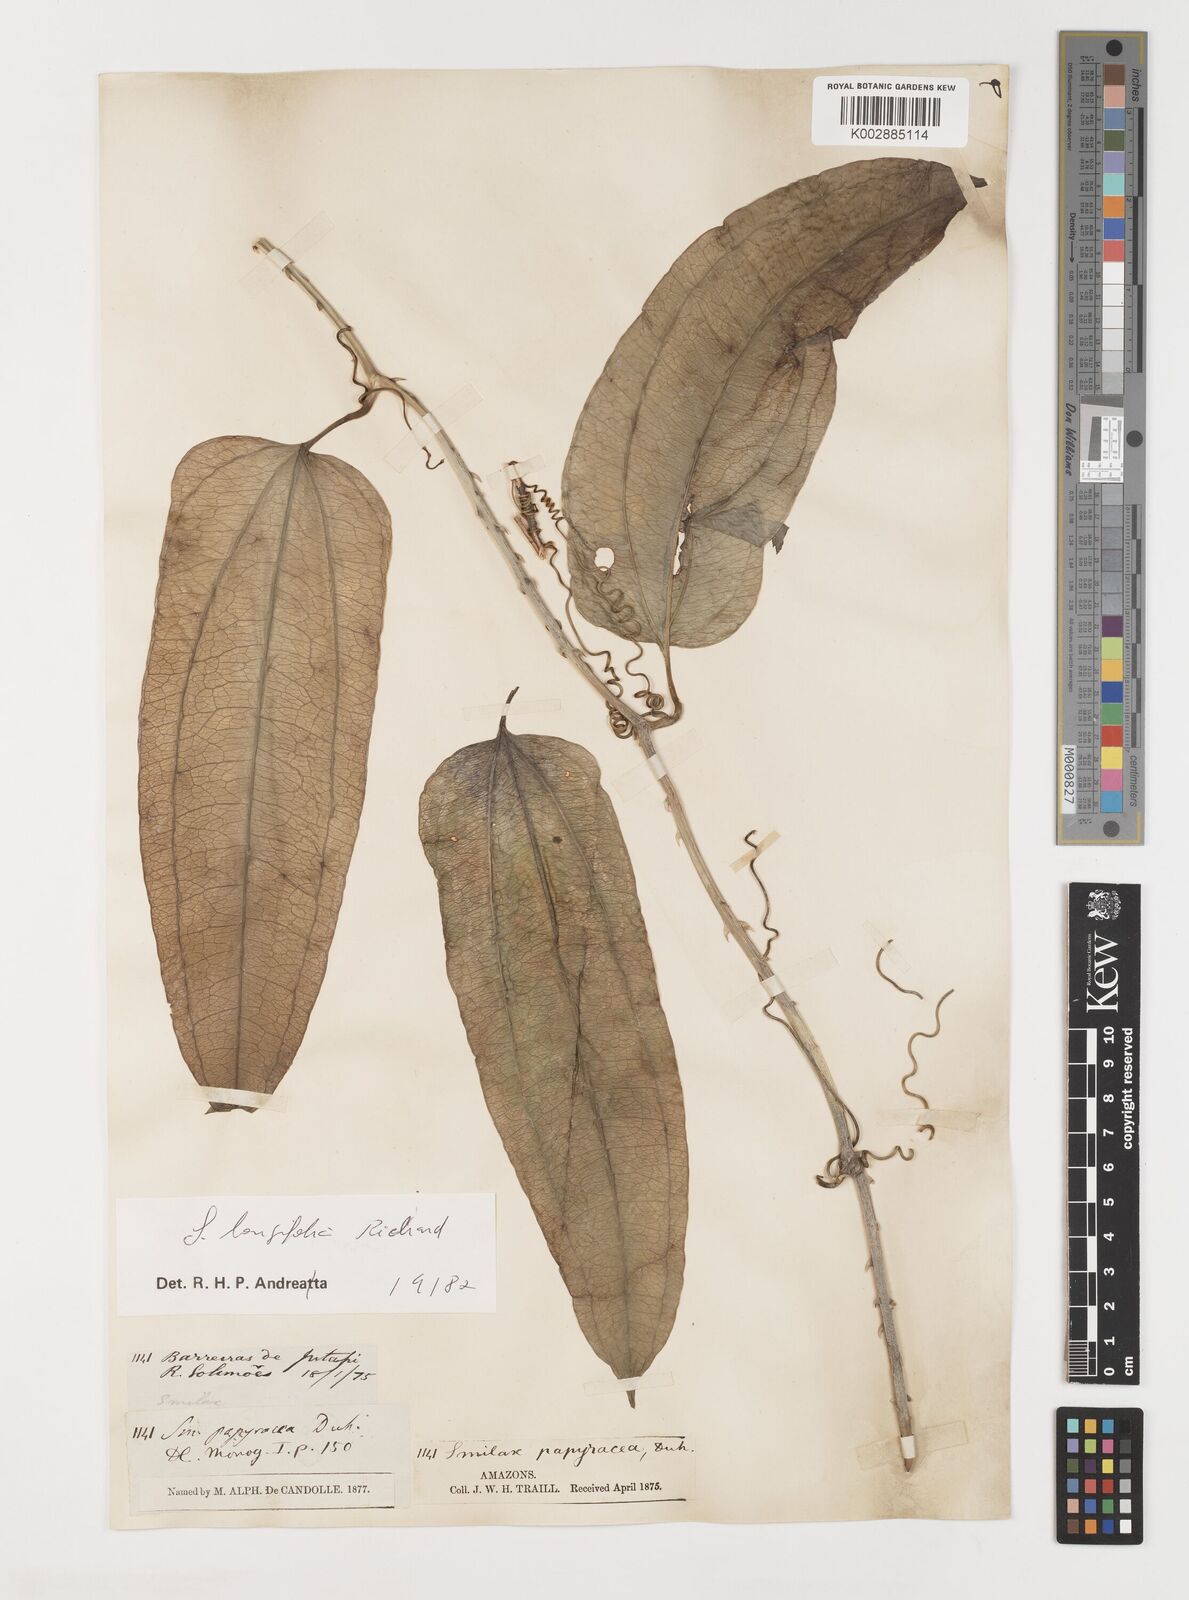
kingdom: Plantae
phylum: Tracheophyta
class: Liliopsida
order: Liliales
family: Smilacaceae
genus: Smilax
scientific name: Smilax longifolia
